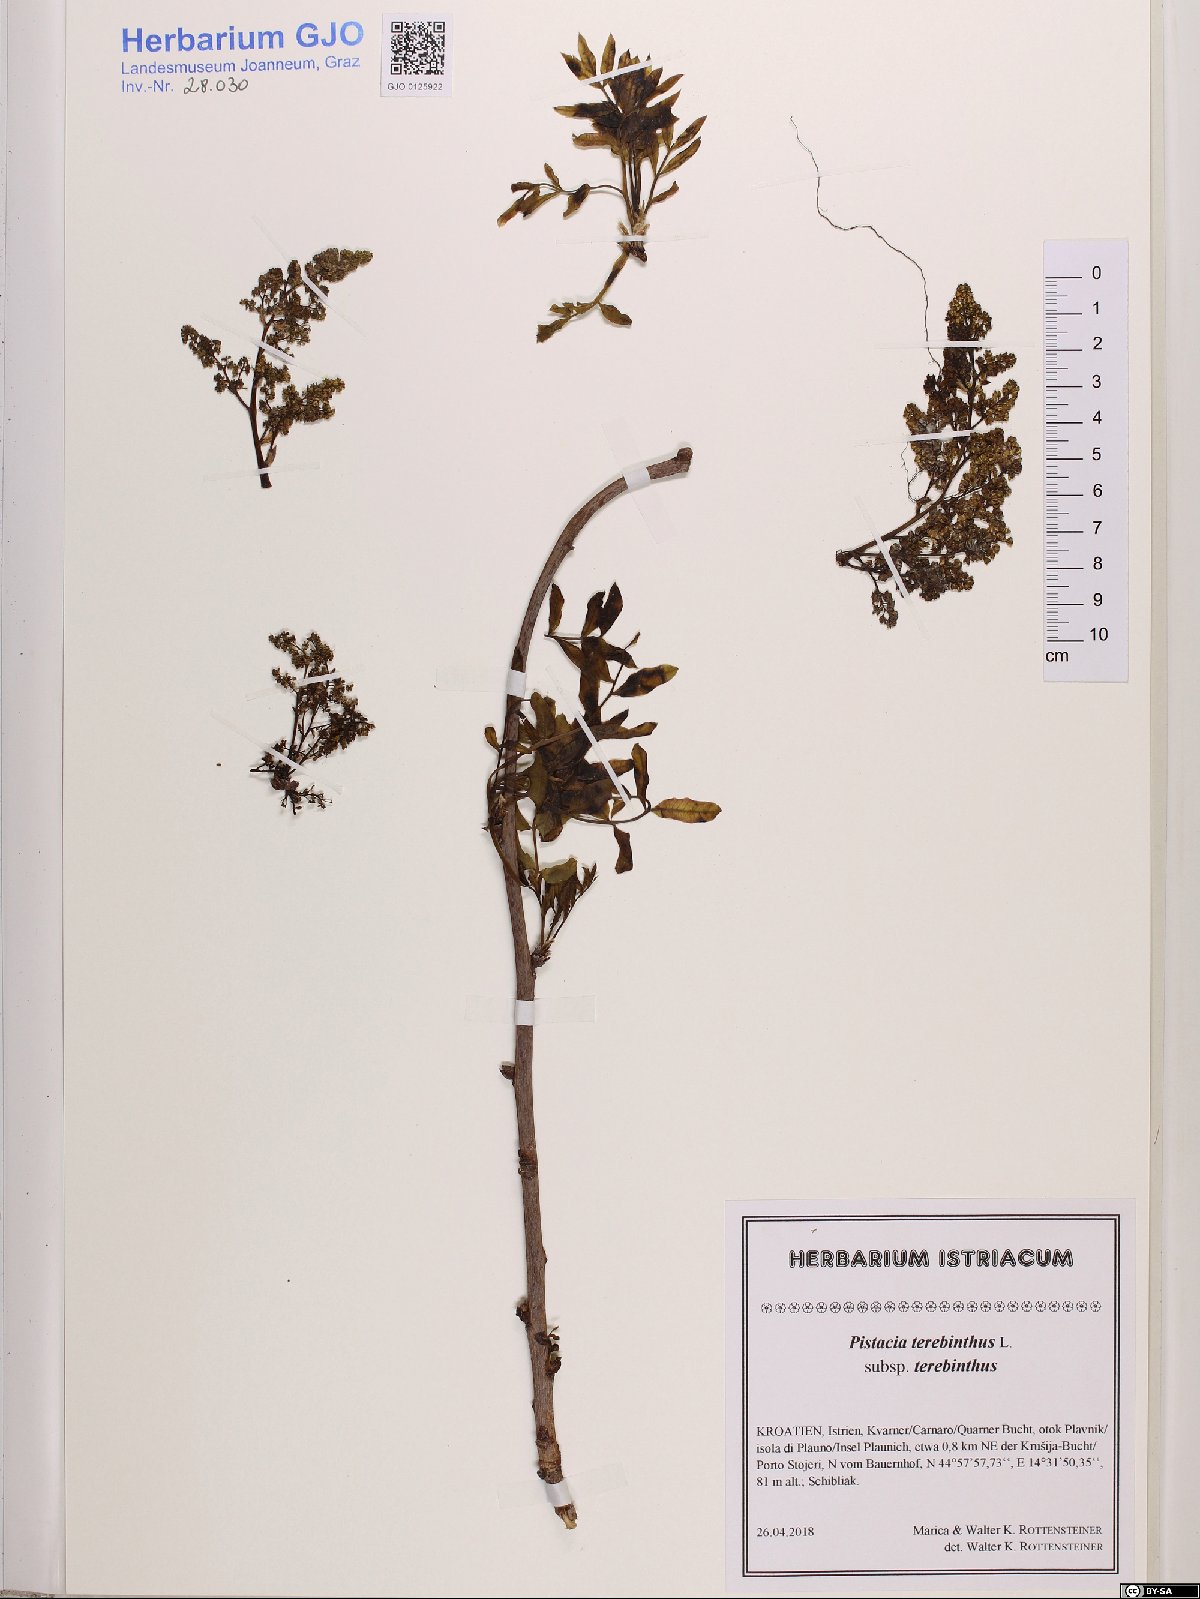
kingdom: Plantae
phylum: Tracheophyta
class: Magnoliopsida
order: Sapindales
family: Anacardiaceae
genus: Pistacia
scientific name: Pistacia terebinthus
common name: Terebinth
